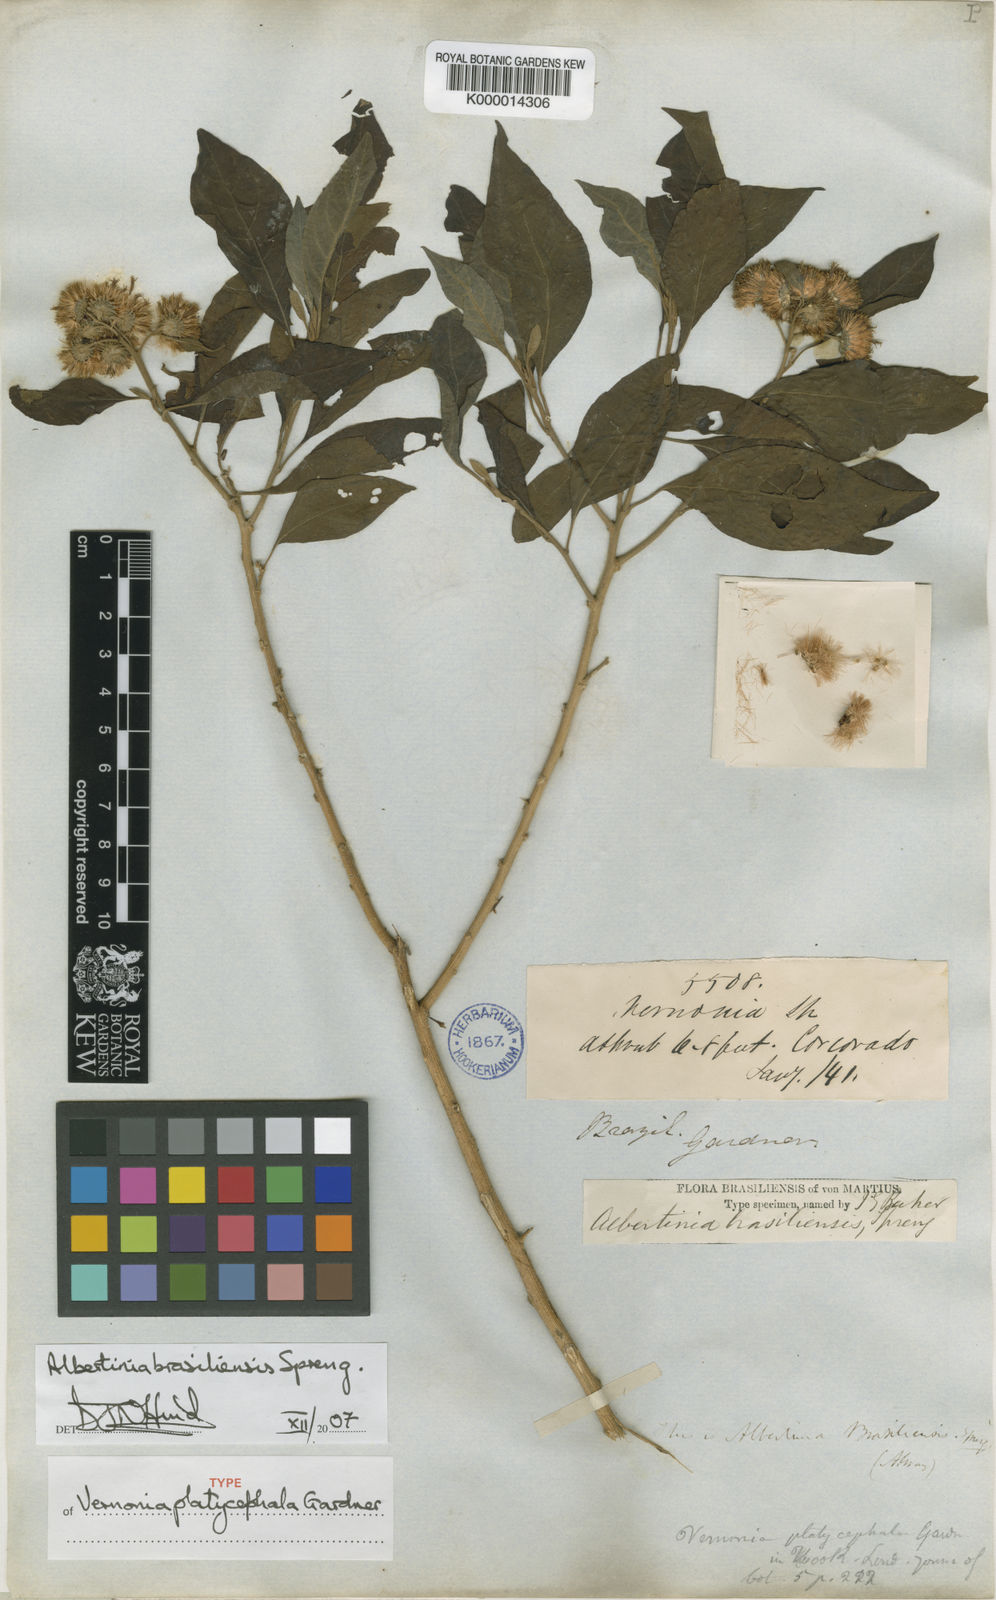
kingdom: Plantae
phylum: Tracheophyta
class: Magnoliopsida
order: Asterales
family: Asteraceae
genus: Albertinia
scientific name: Albertinia brasiliensis
